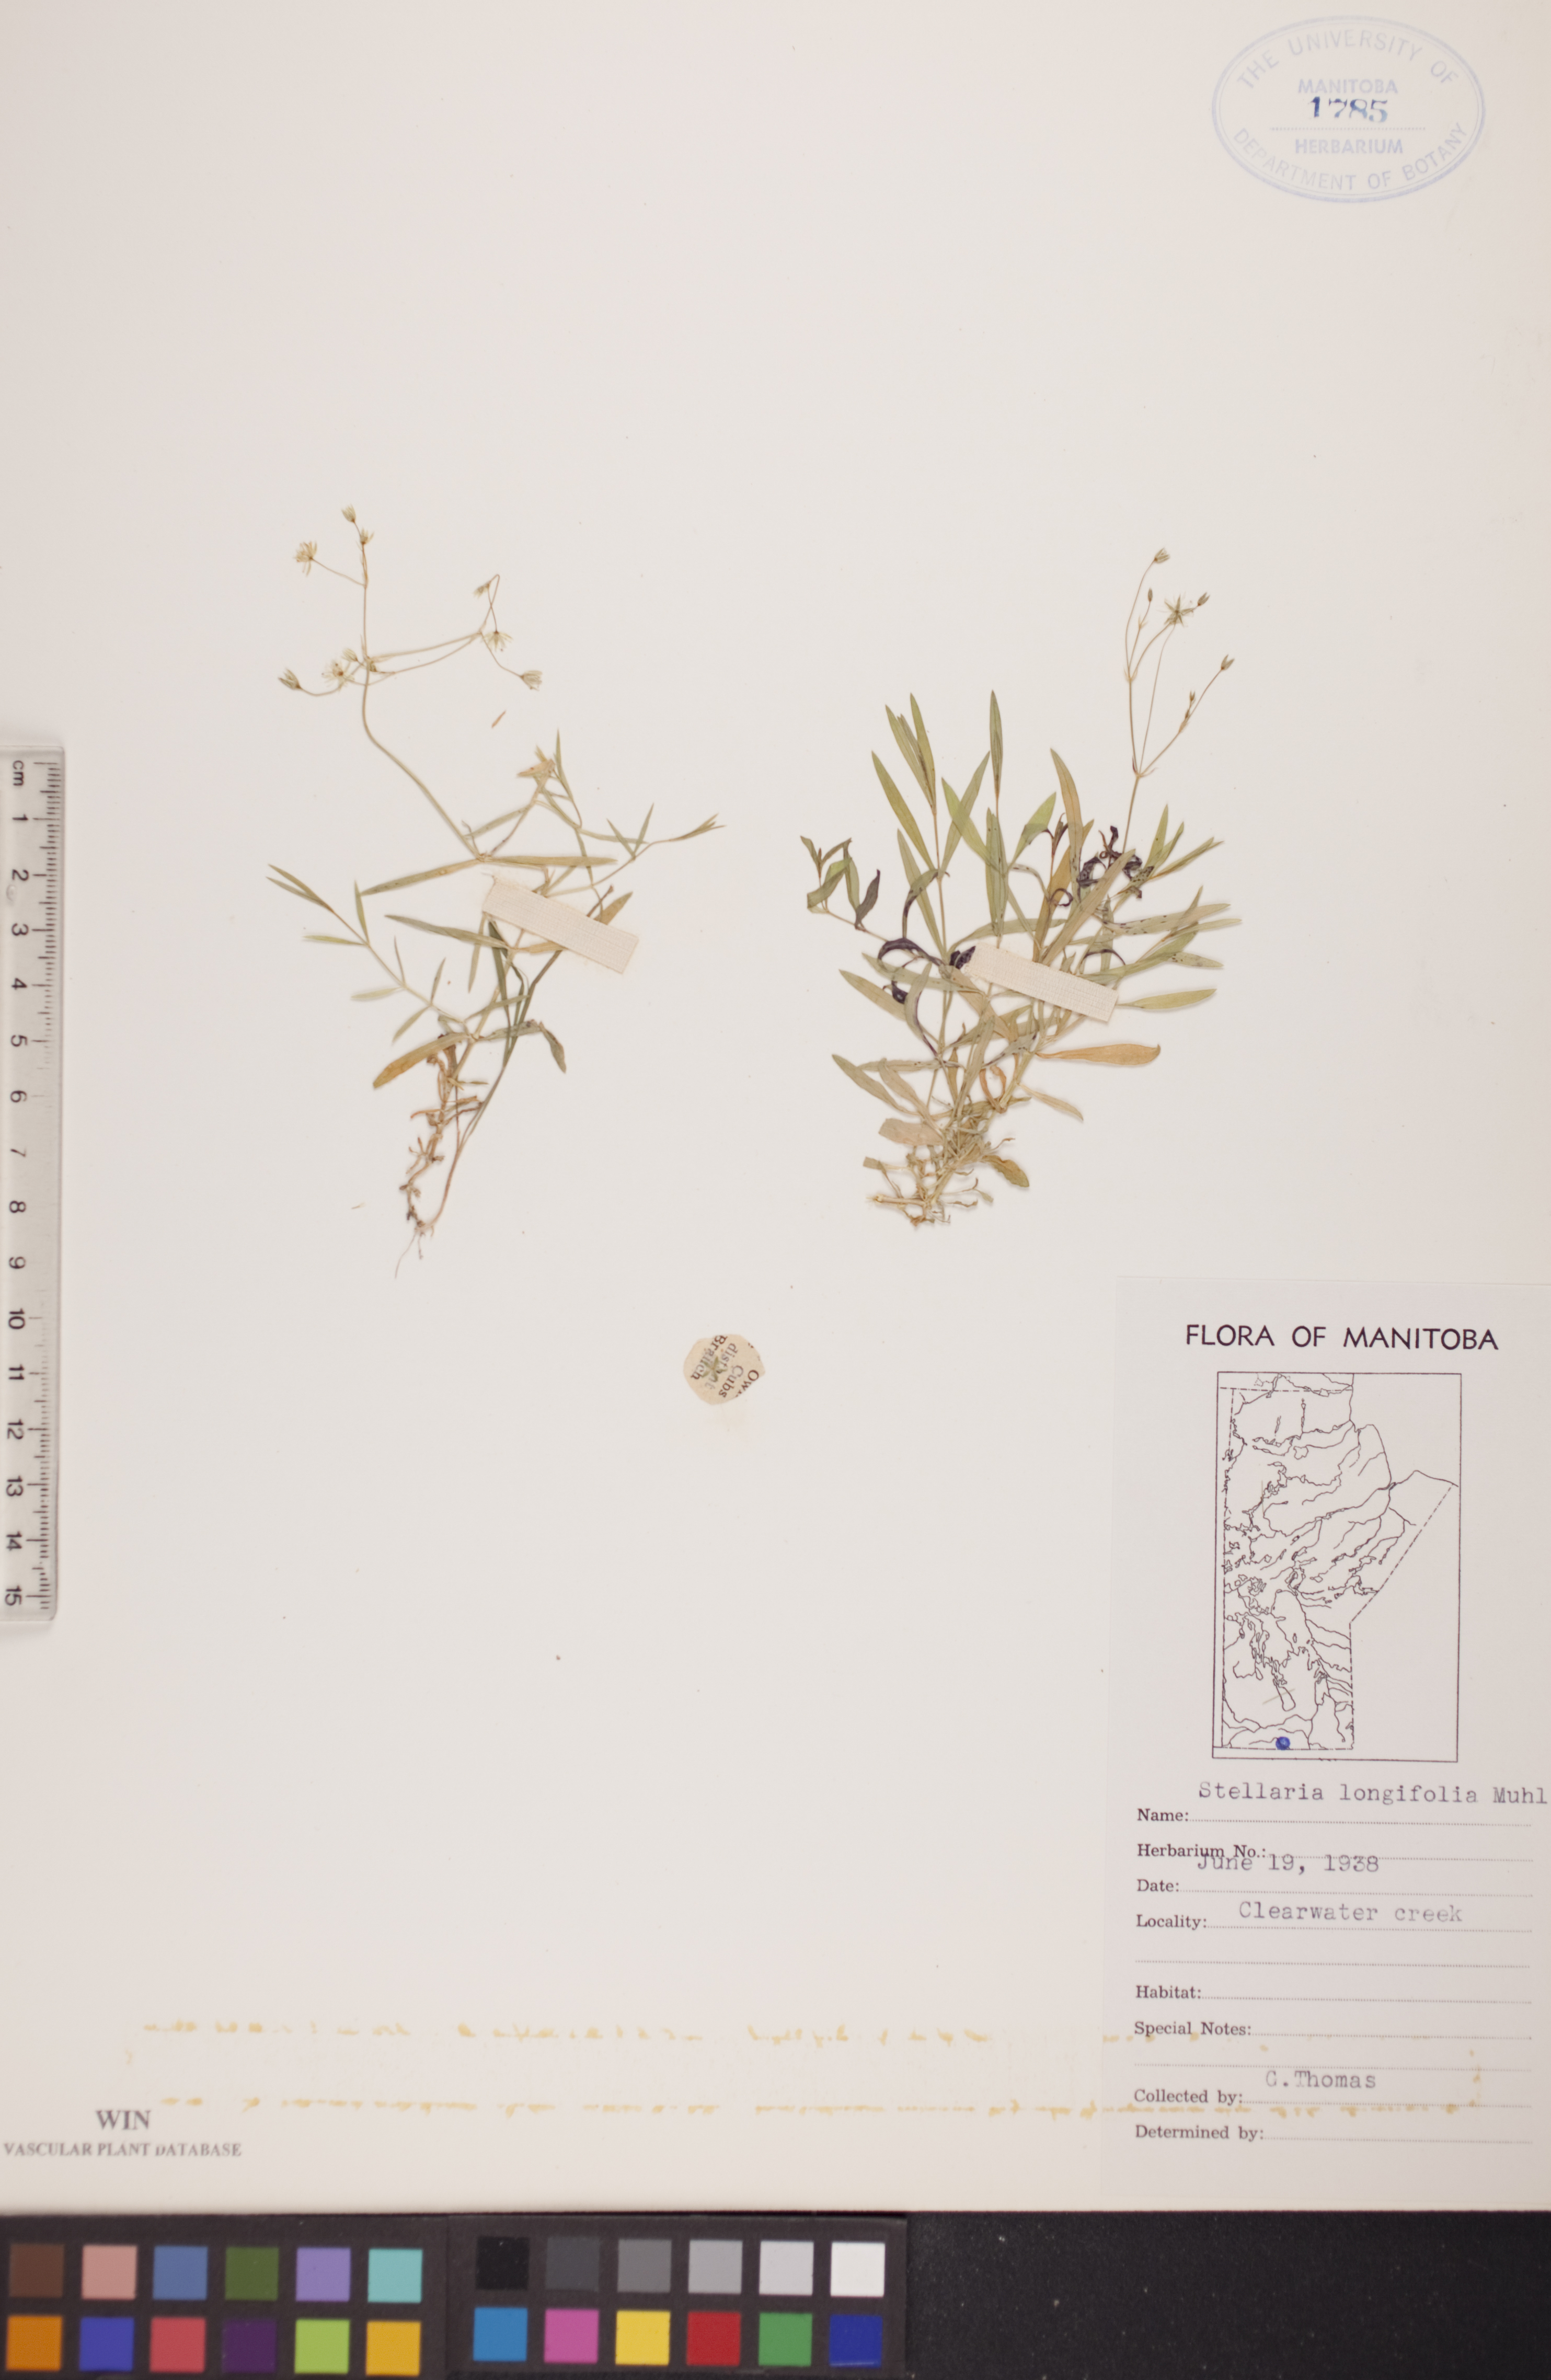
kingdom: Plantae
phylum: Tracheophyta
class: Magnoliopsida
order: Caryophyllales
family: Caryophyllaceae
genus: Stellaria
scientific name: Stellaria longifolia
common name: Long-leaved chickweed
